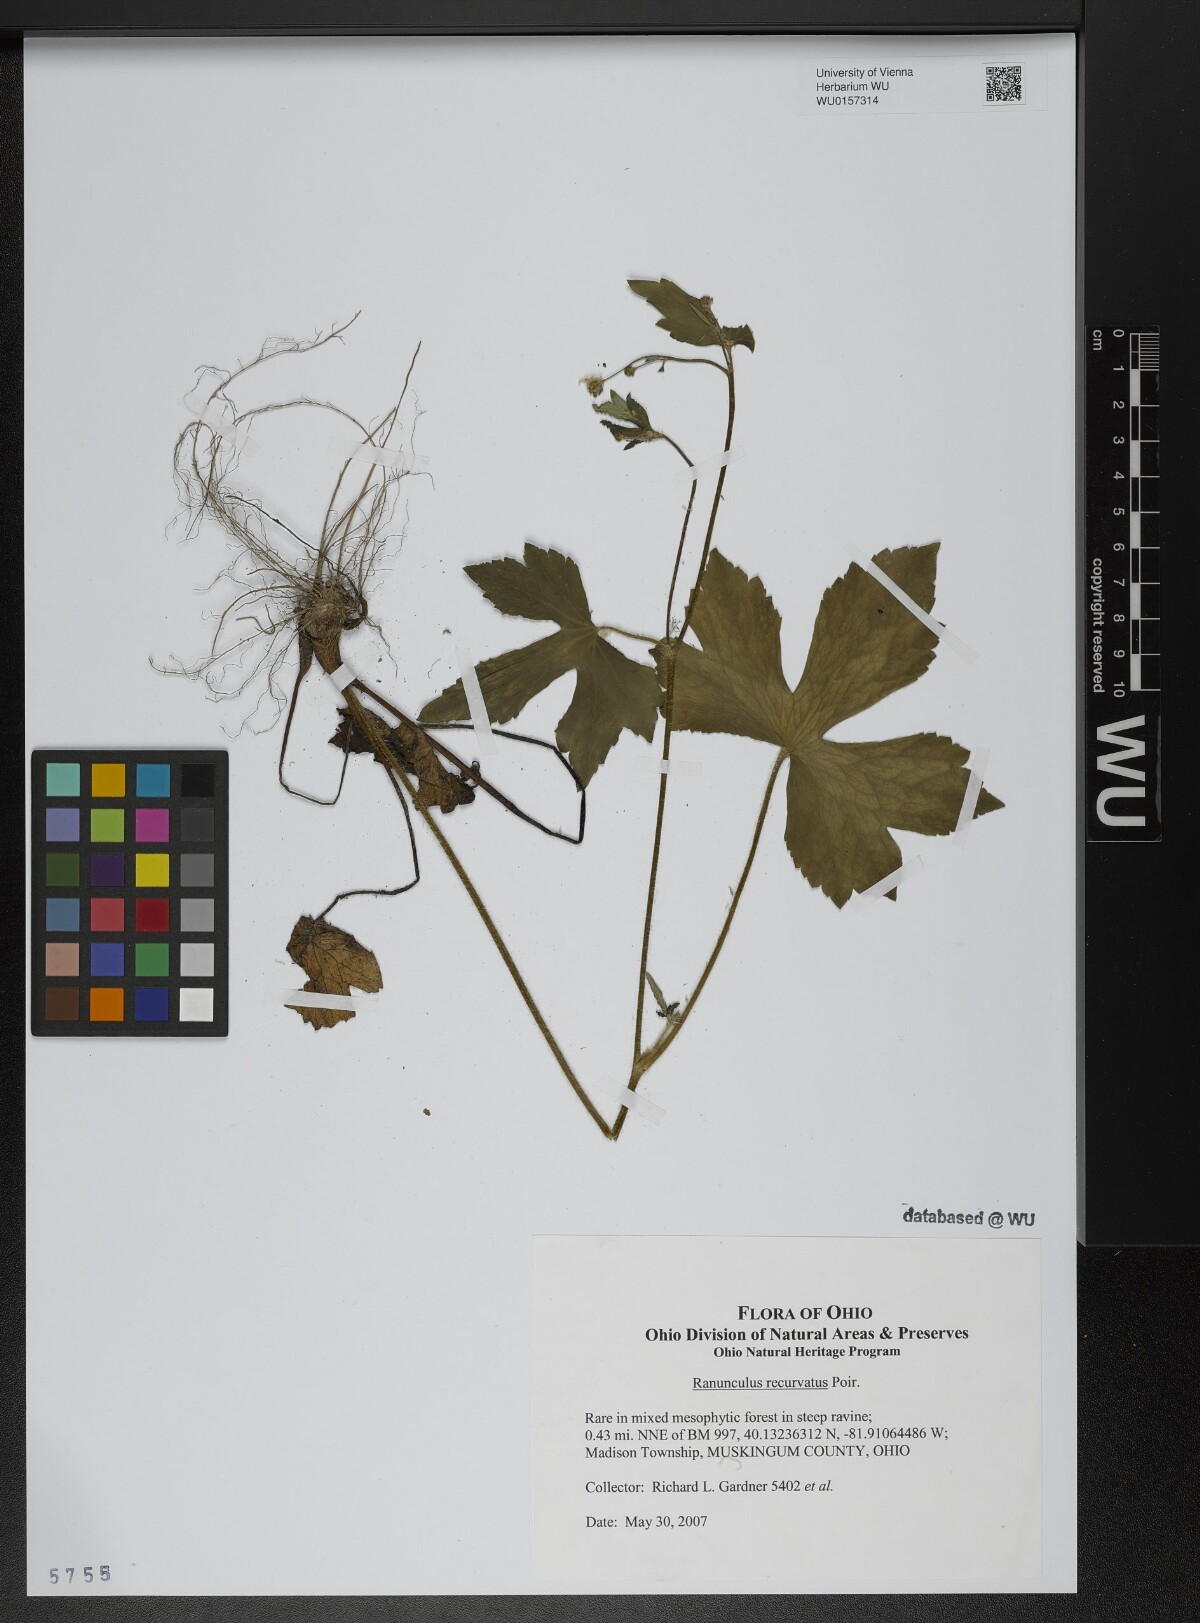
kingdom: Plantae
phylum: Tracheophyta
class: Magnoliopsida
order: Ranunculales
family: Ranunculaceae
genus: Ranunculus
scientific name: Ranunculus recurvatus
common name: Blisterwort
